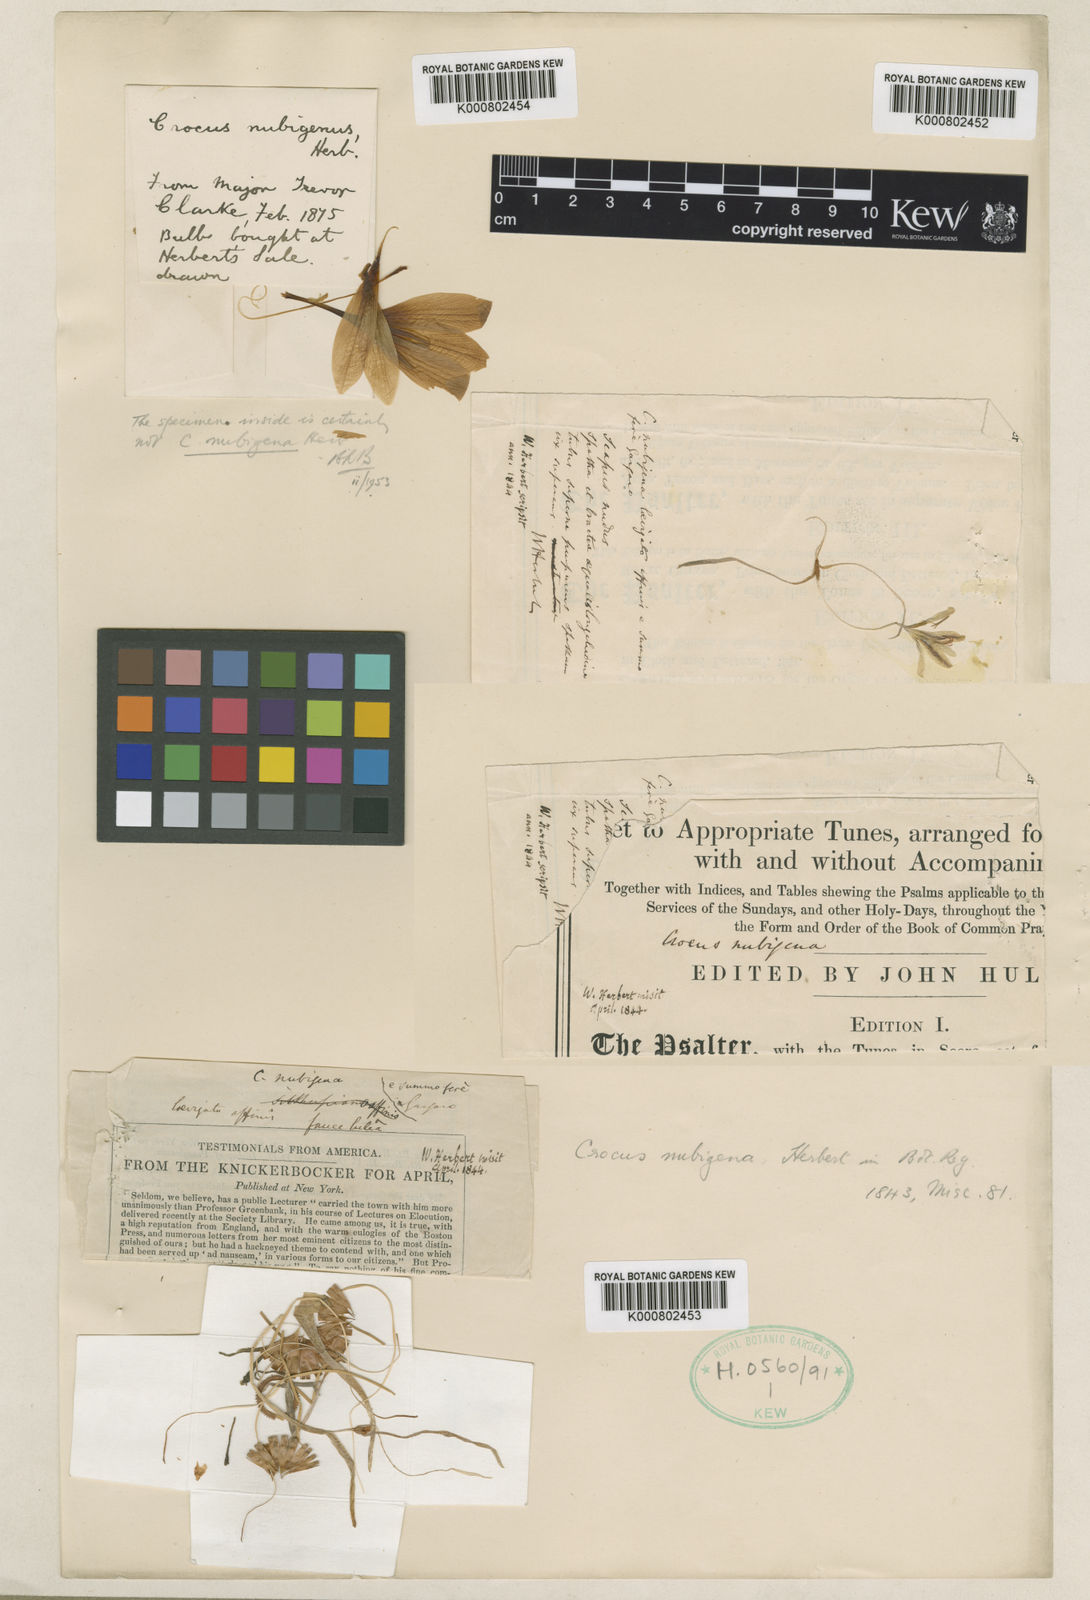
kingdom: Plantae
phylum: Tracheophyta
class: Liliopsida
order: Asparagales
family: Iridaceae
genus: Crocus
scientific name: Crocus nubigena
